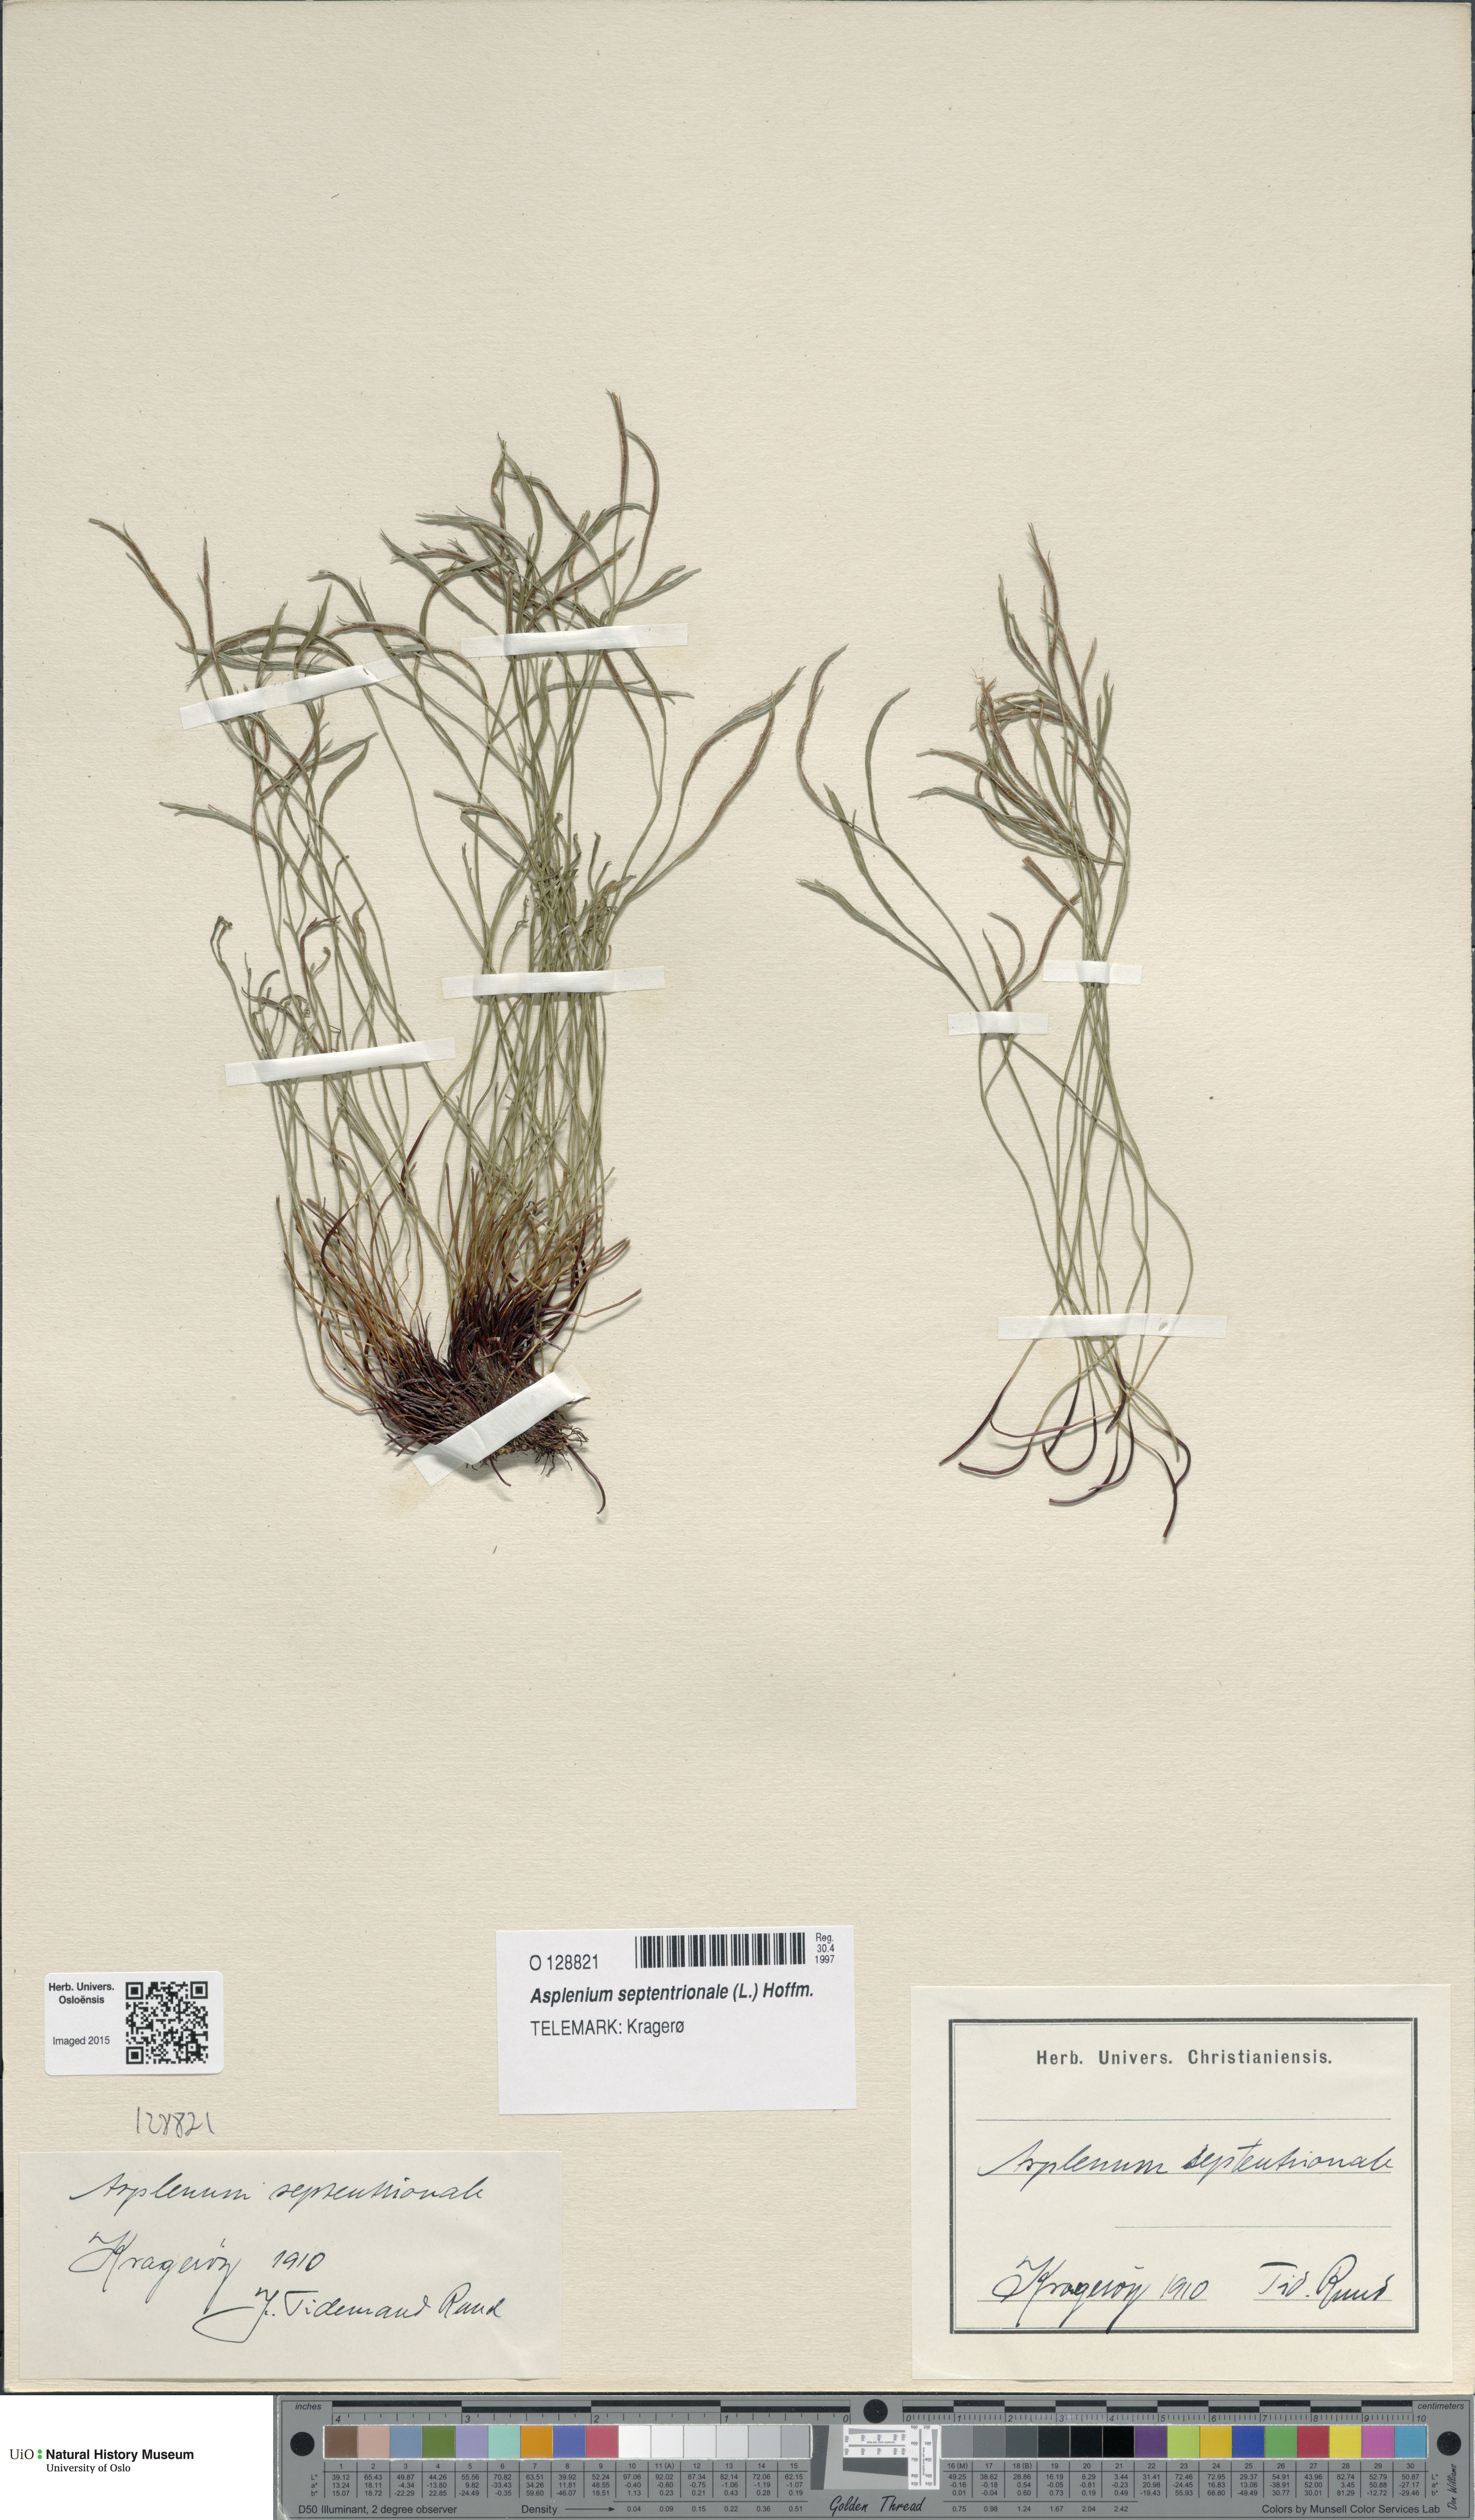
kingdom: Plantae
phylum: Tracheophyta
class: Polypodiopsida
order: Polypodiales
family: Aspleniaceae
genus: Asplenium
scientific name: Asplenium septentrionale
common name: Forked spleenwort
